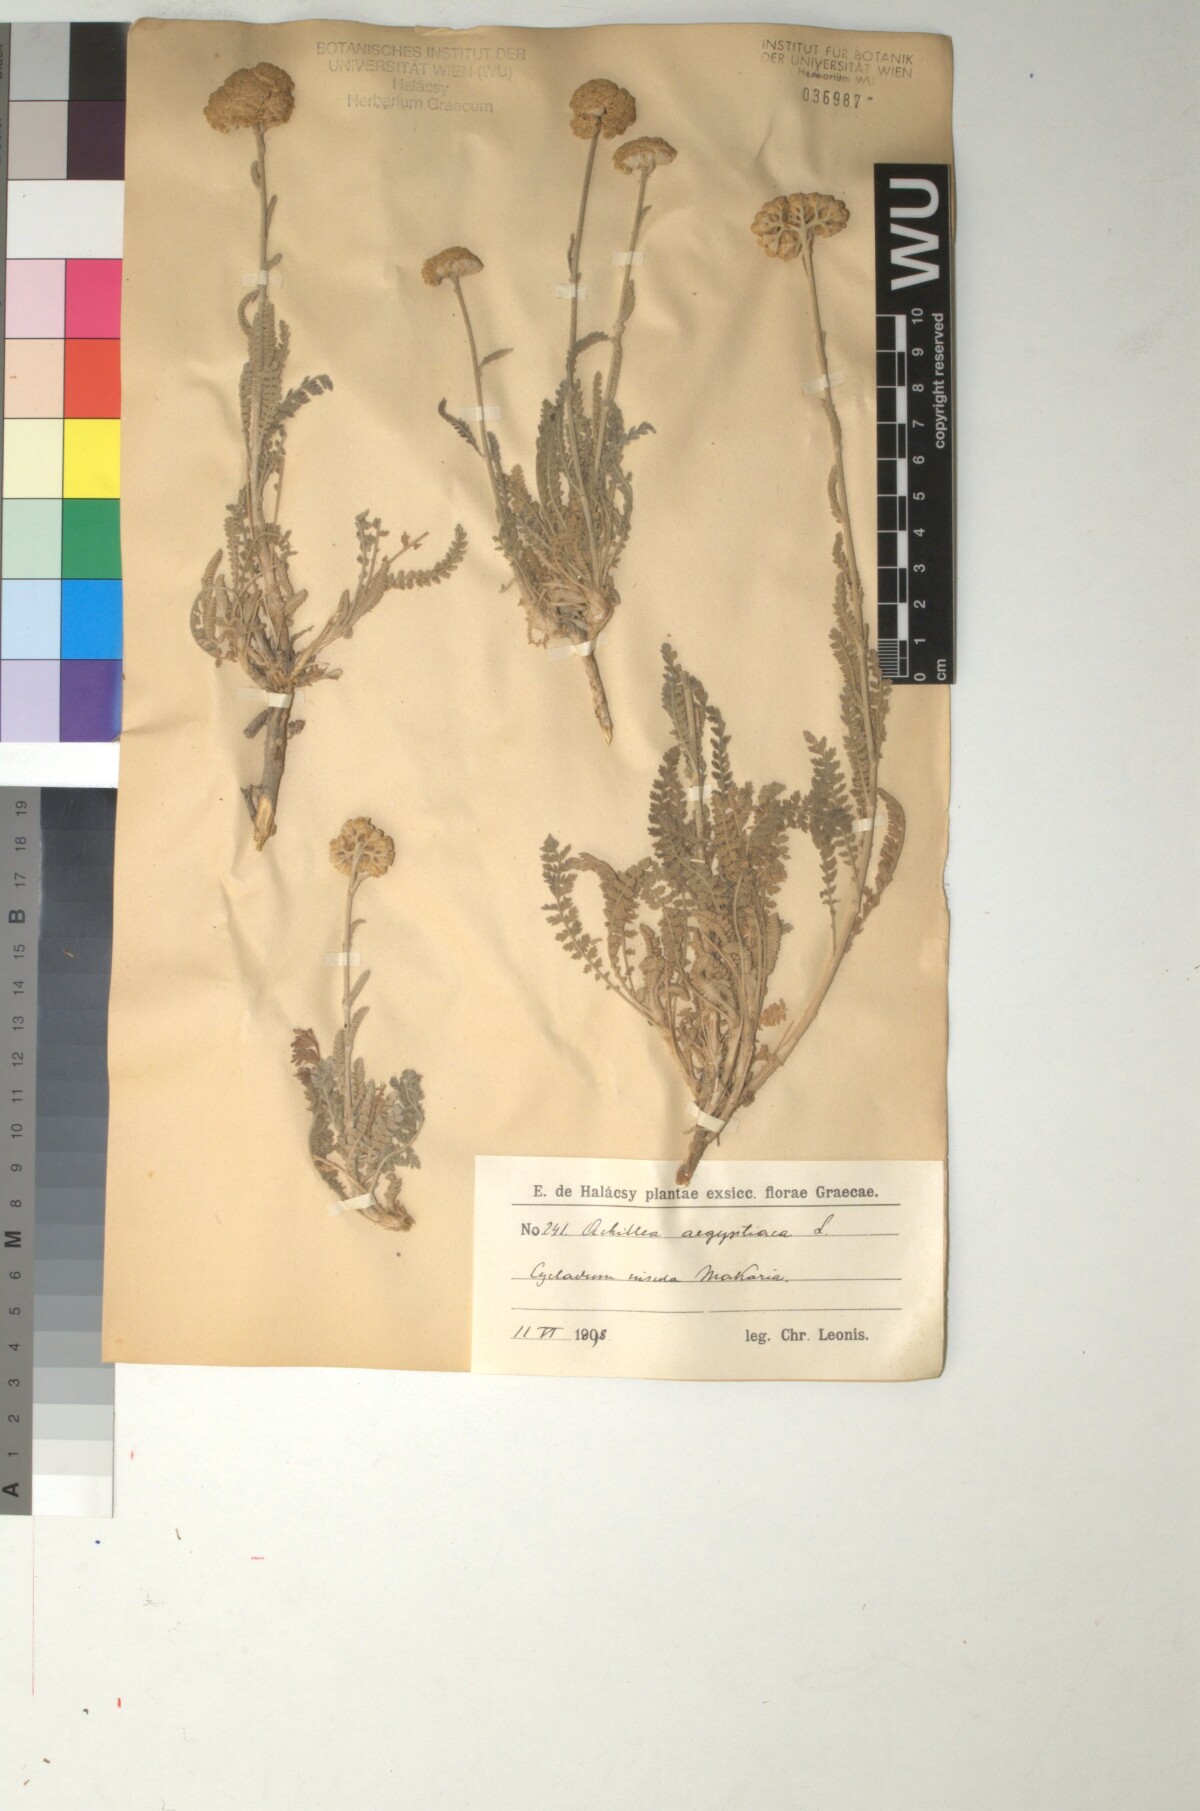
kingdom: Plantae
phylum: Tracheophyta
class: Magnoliopsida
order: Asterales
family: Asteraceae
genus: Achillea
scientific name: Achillea aegyptiaca
